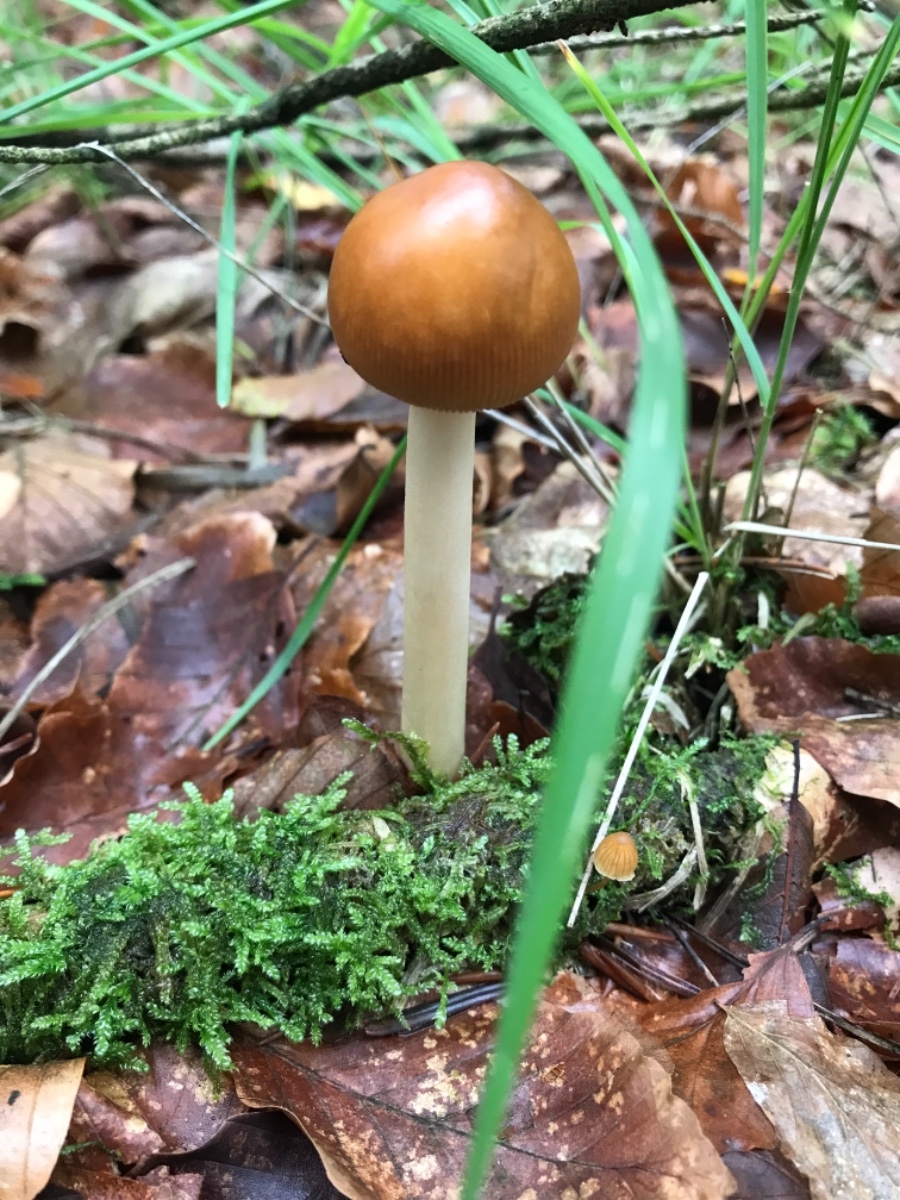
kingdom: Fungi
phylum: Basidiomycota
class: Agaricomycetes
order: Agaricales
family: Amanitaceae
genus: Amanita
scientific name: Amanita fulva
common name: brun kam-fluesvamp
